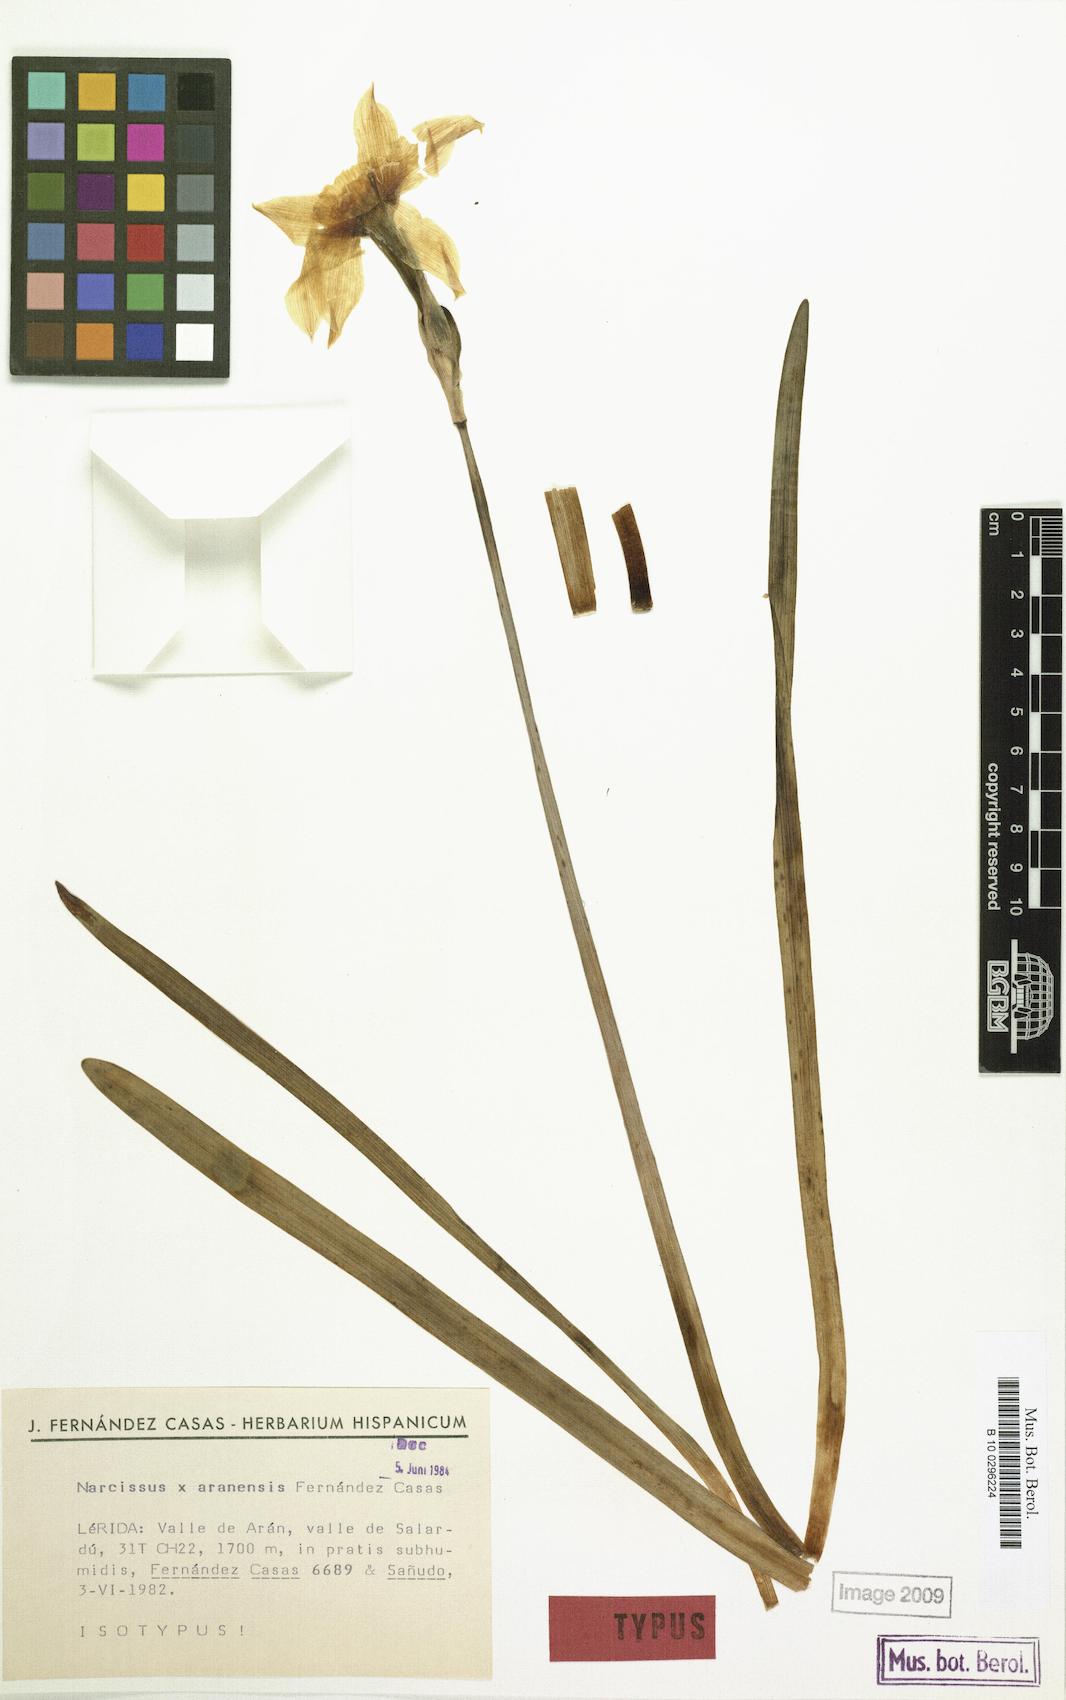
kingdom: Plantae
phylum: Tracheophyta
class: Liliopsida
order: Asparagales
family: Amaryllidaceae
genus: Narcissus
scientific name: Narcissus aranensis
